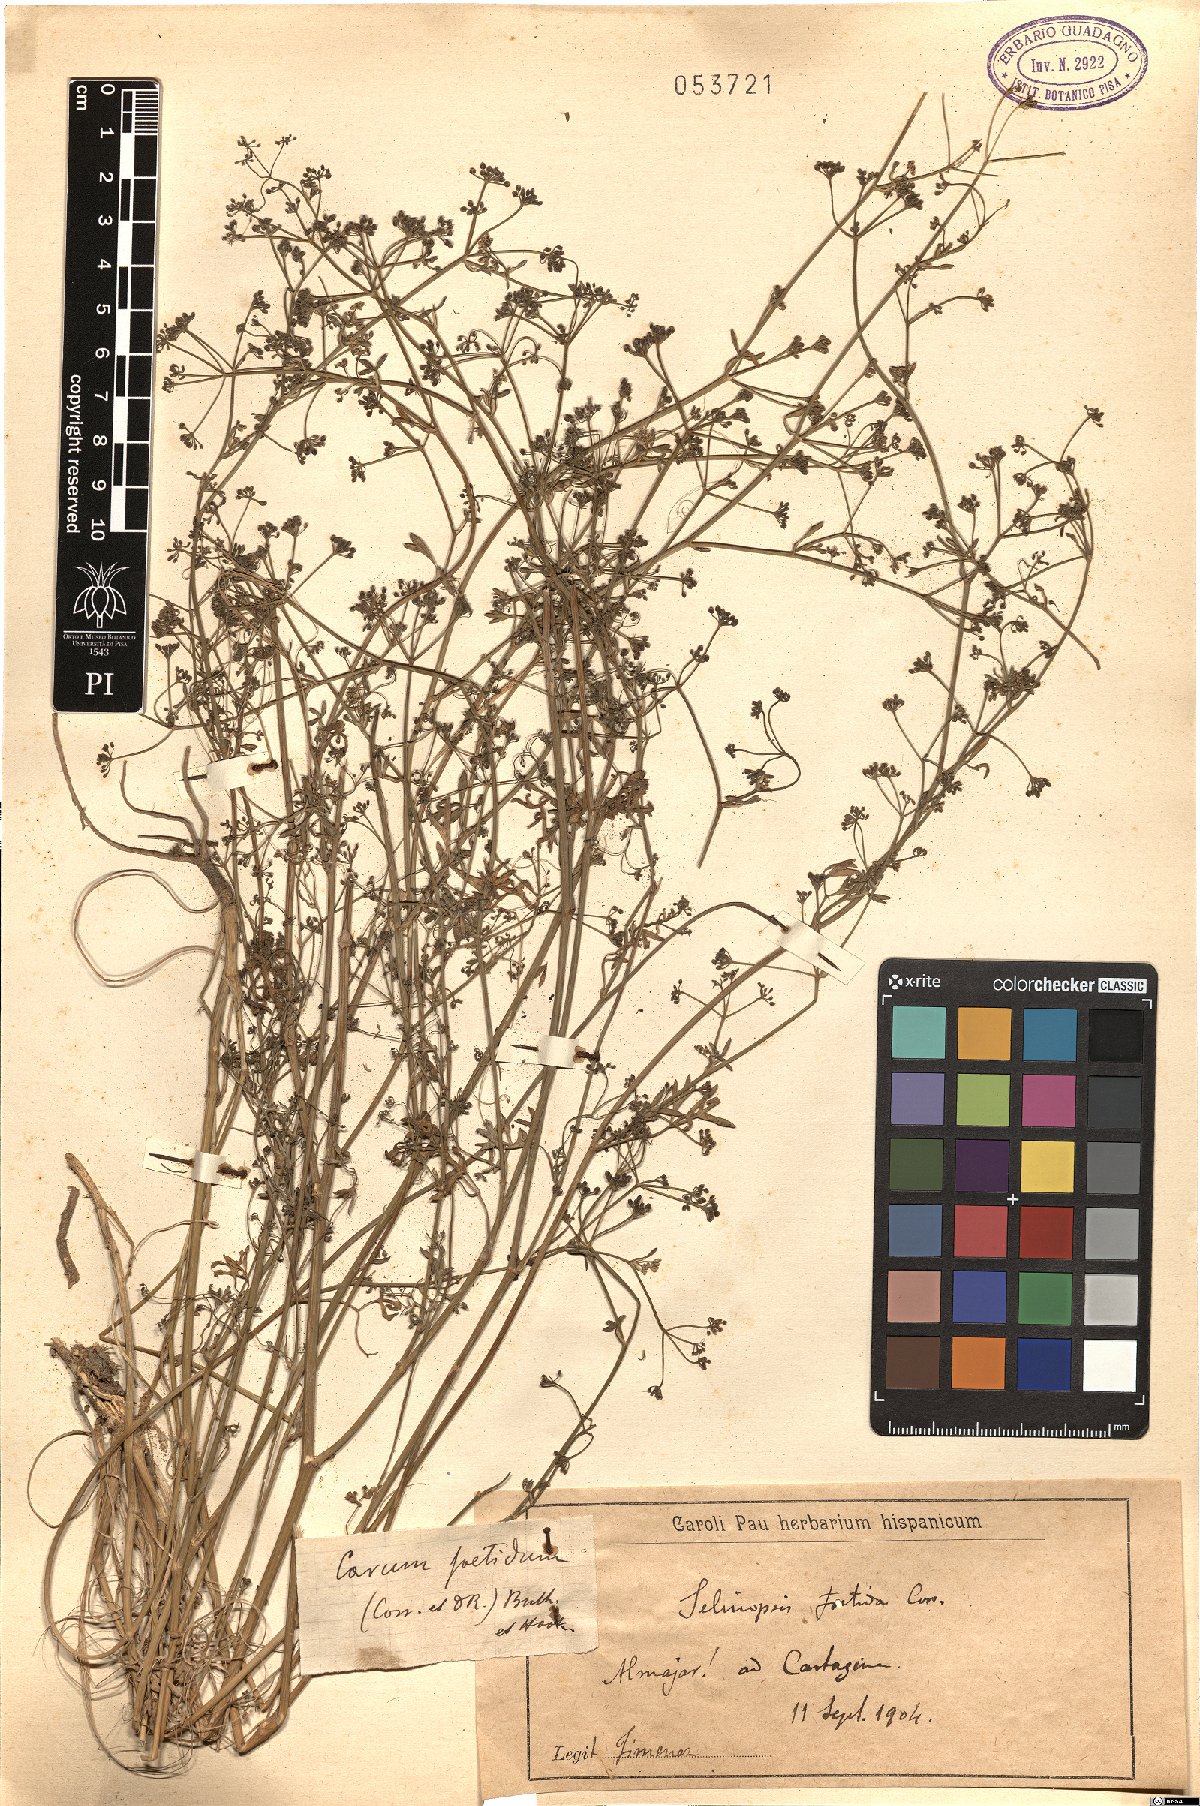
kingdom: Plantae
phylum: Tracheophyta
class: Magnoliopsida
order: Apiales
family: Apiaceae
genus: Selinopsis
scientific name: Selinopsis foetida
